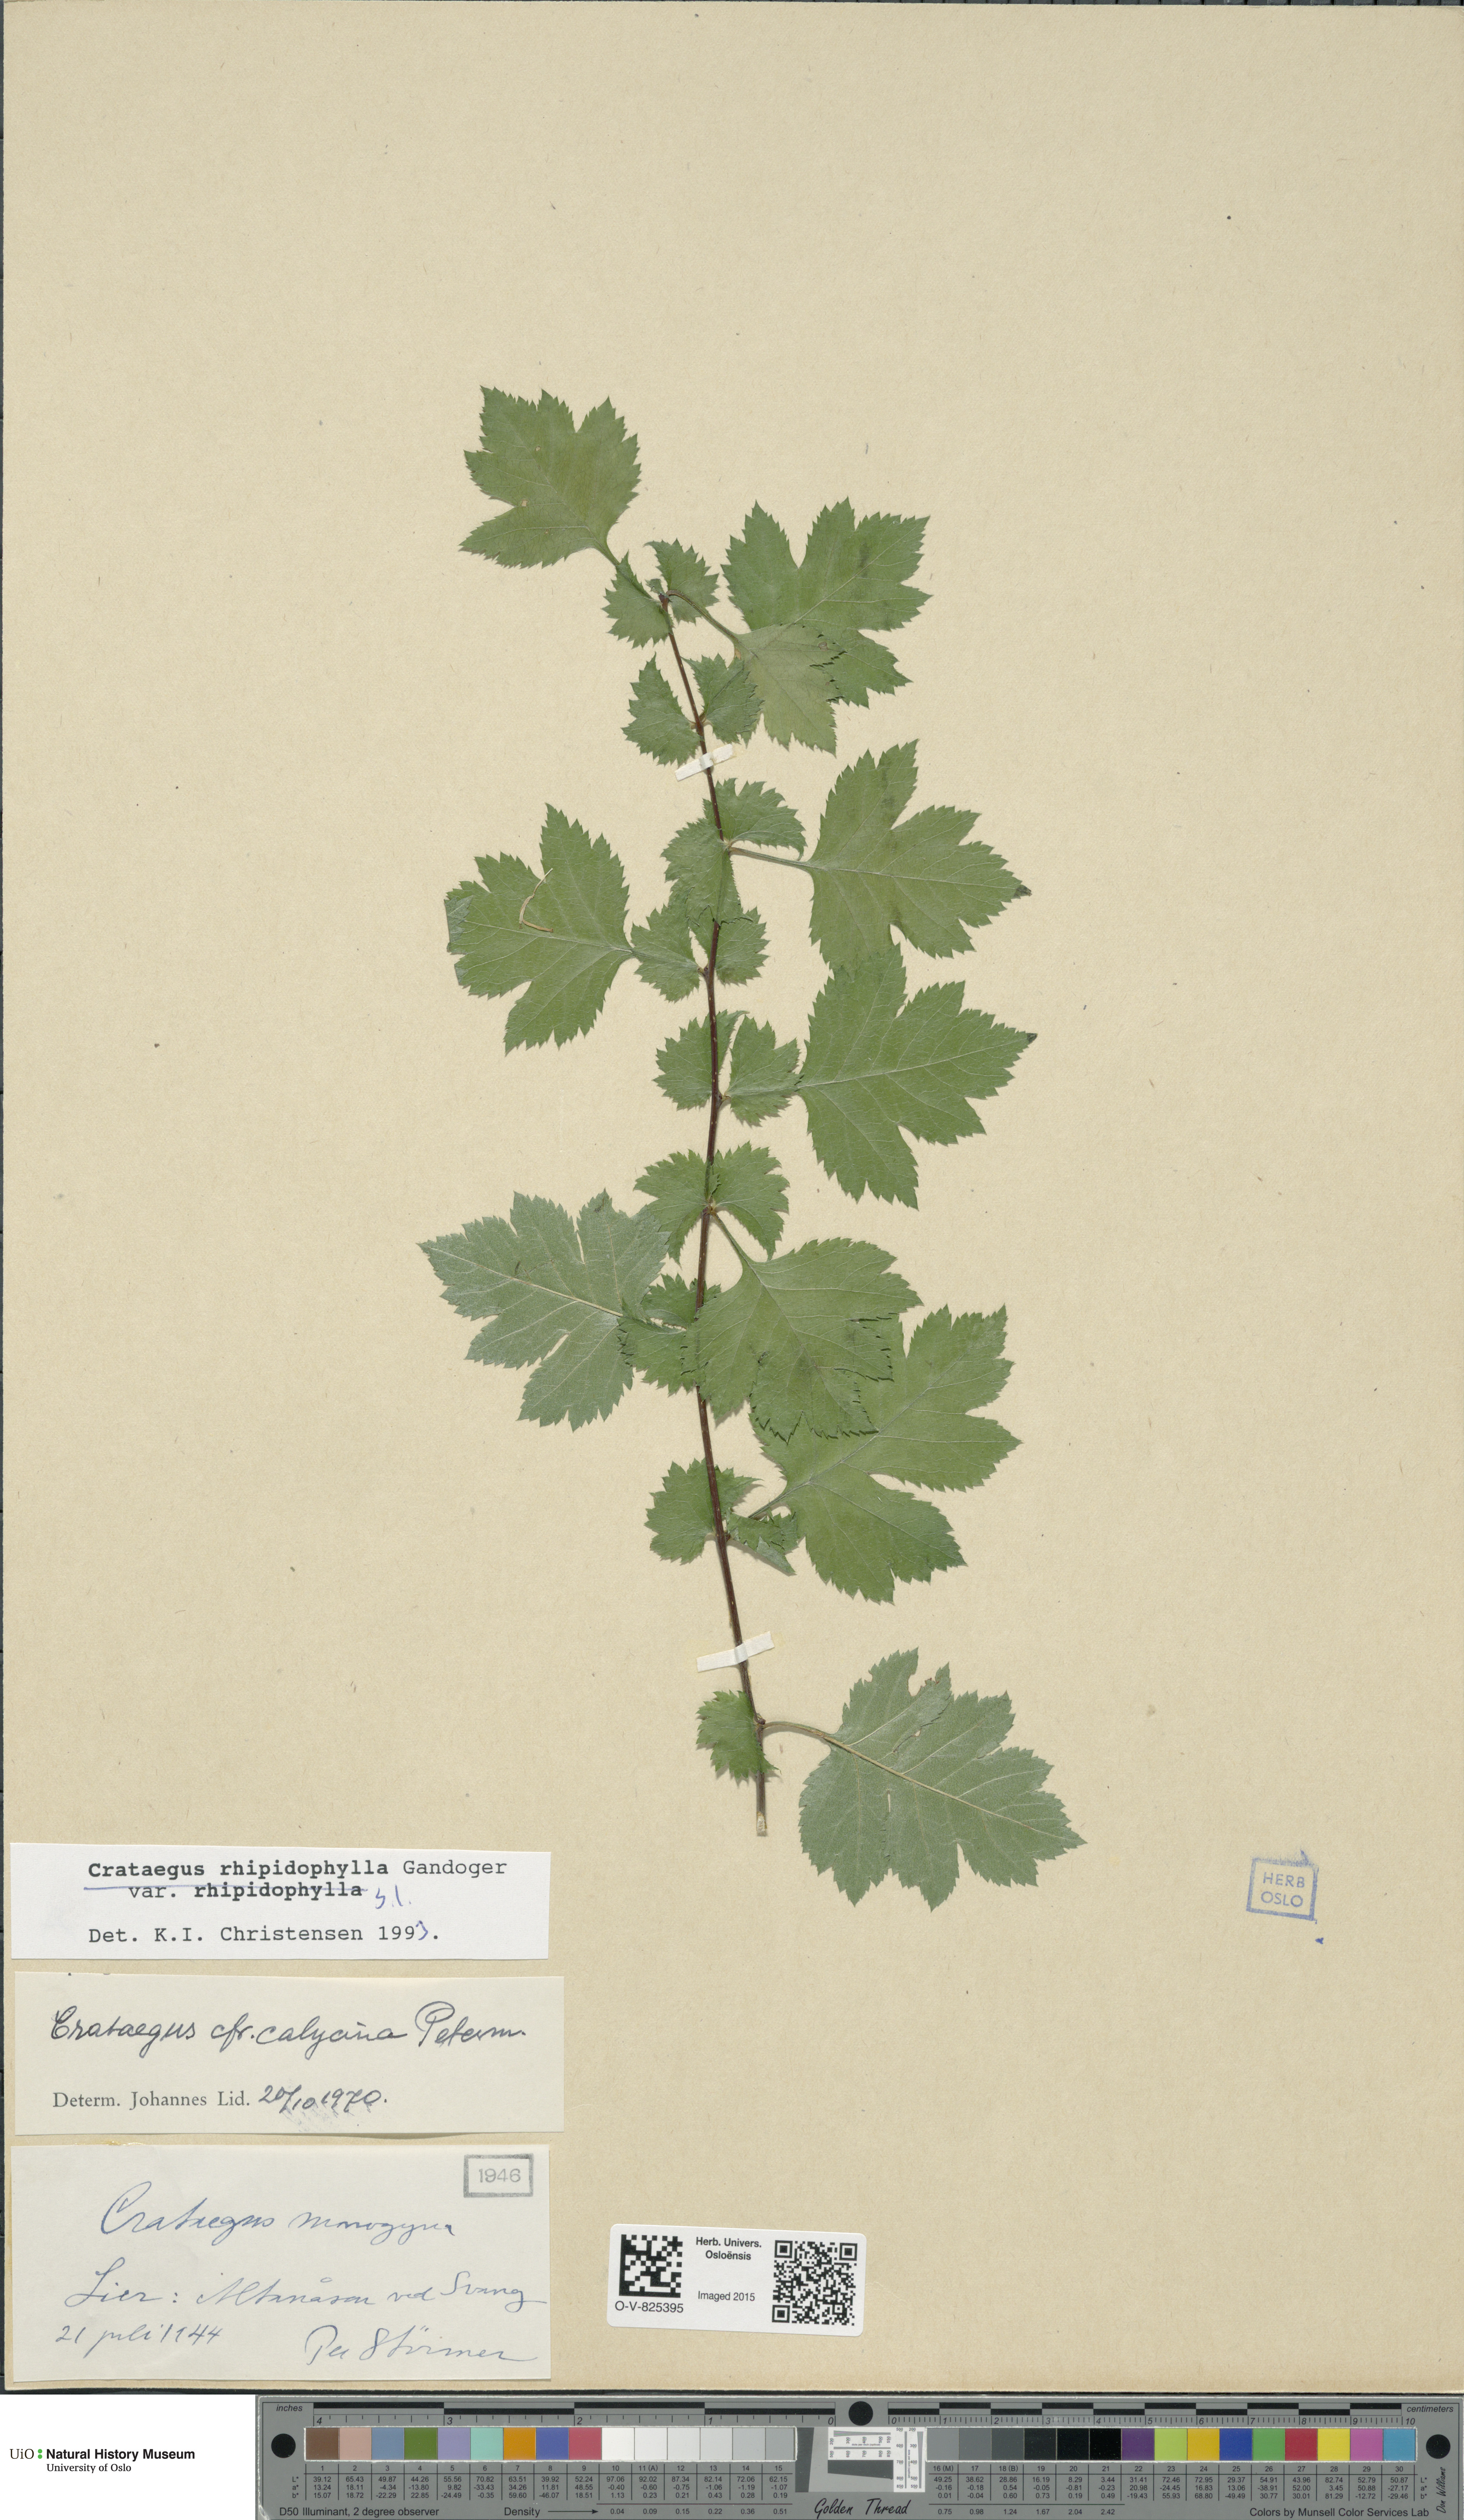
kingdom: Plantae
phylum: Tracheophyta
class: Magnoliopsida
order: Rosales
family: Rosaceae
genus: Crataegus
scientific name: Crataegus rhipidophylla
